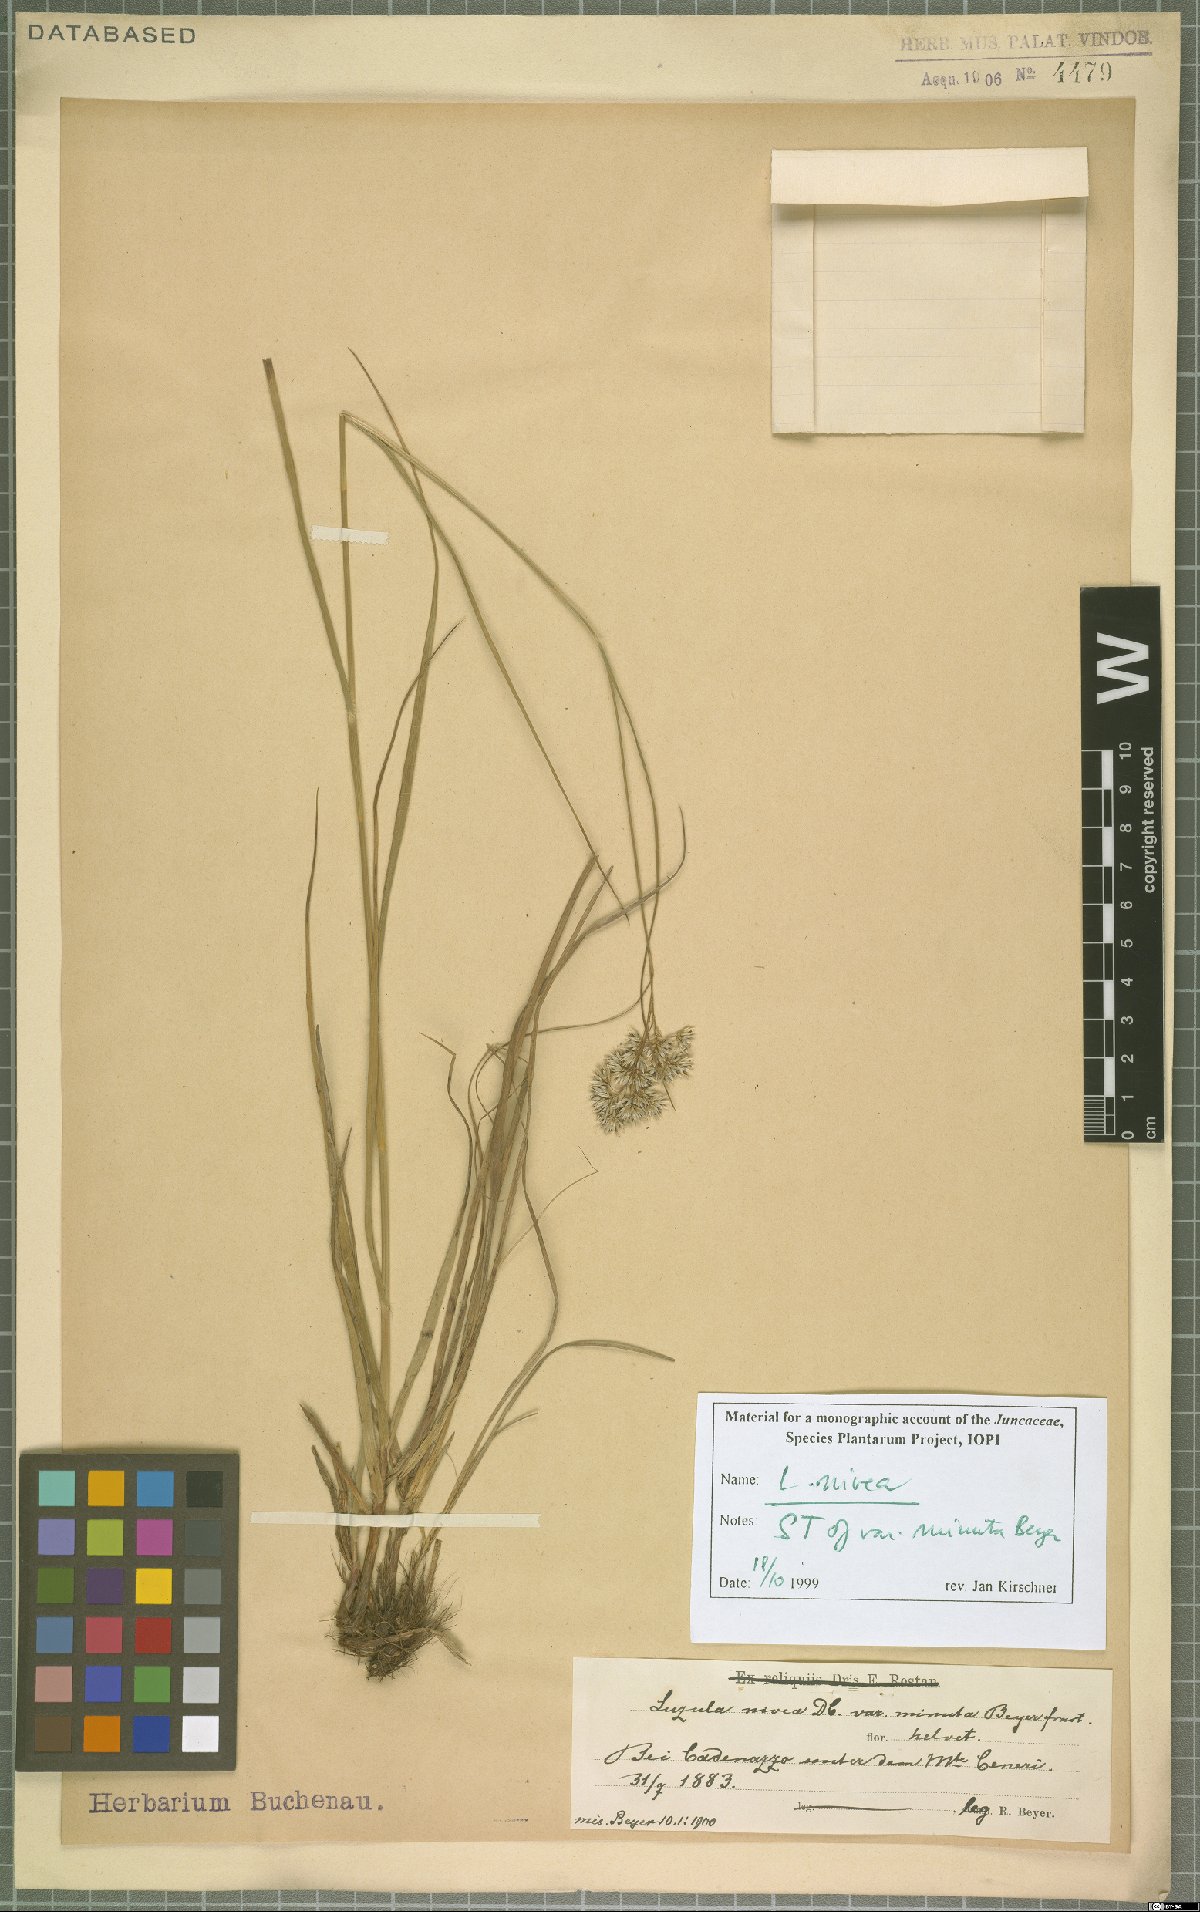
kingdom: Plantae
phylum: Tracheophyta
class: Liliopsida
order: Poales
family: Juncaceae
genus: Luzula
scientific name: Luzula nivea
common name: Snow-white wood-rush
